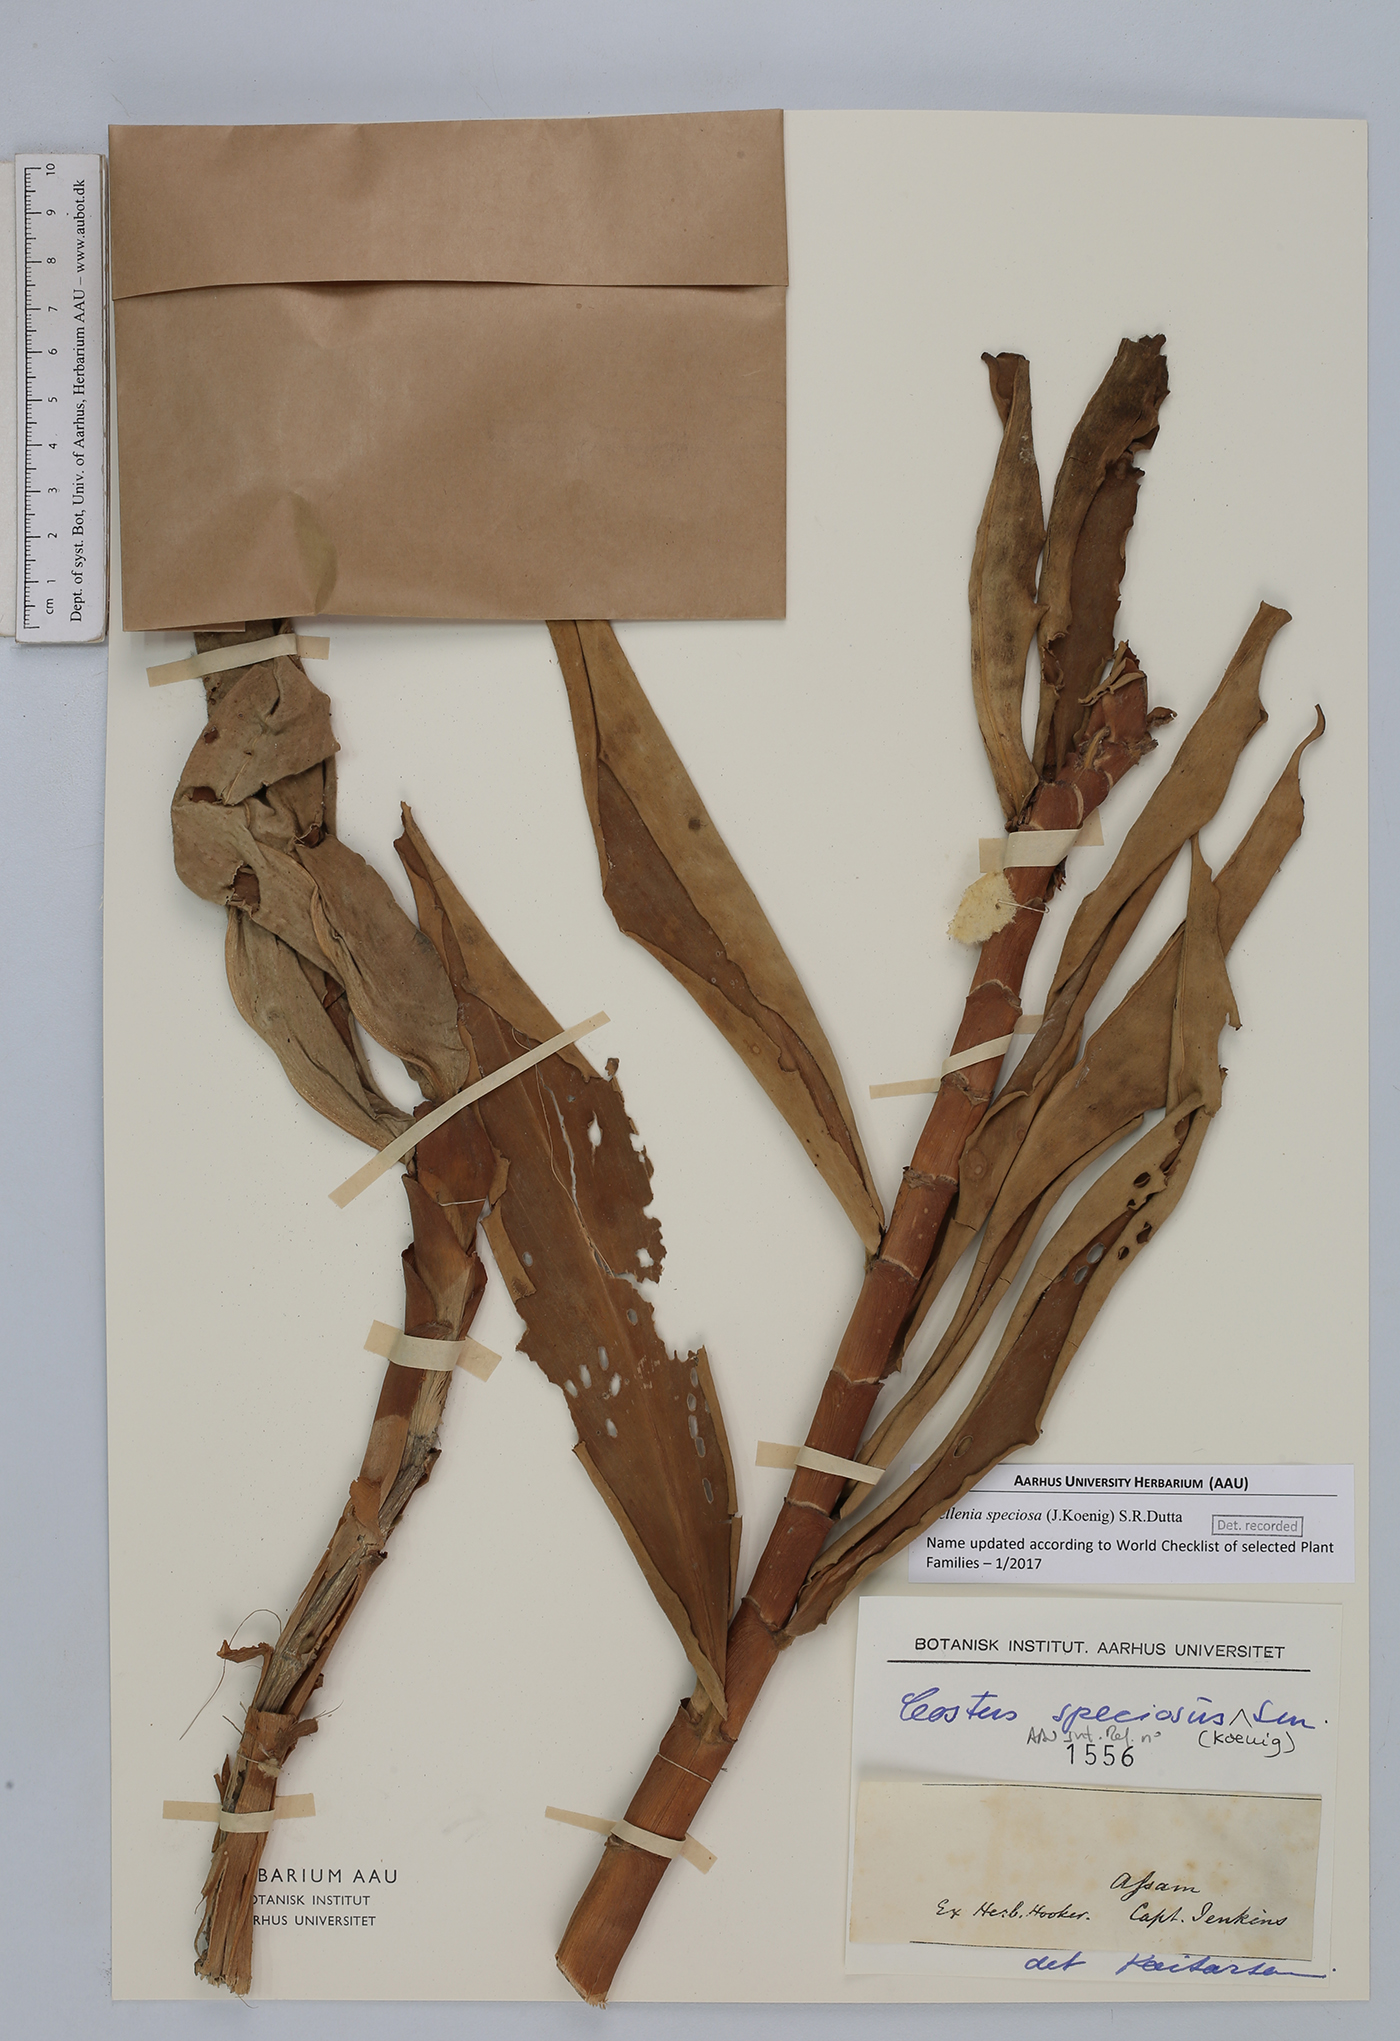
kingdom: Plantae
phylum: Tracheophyta
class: Liliopsida
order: Zingiberales
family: Costaceae
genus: Hellenia
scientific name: Hellenia speciosa
